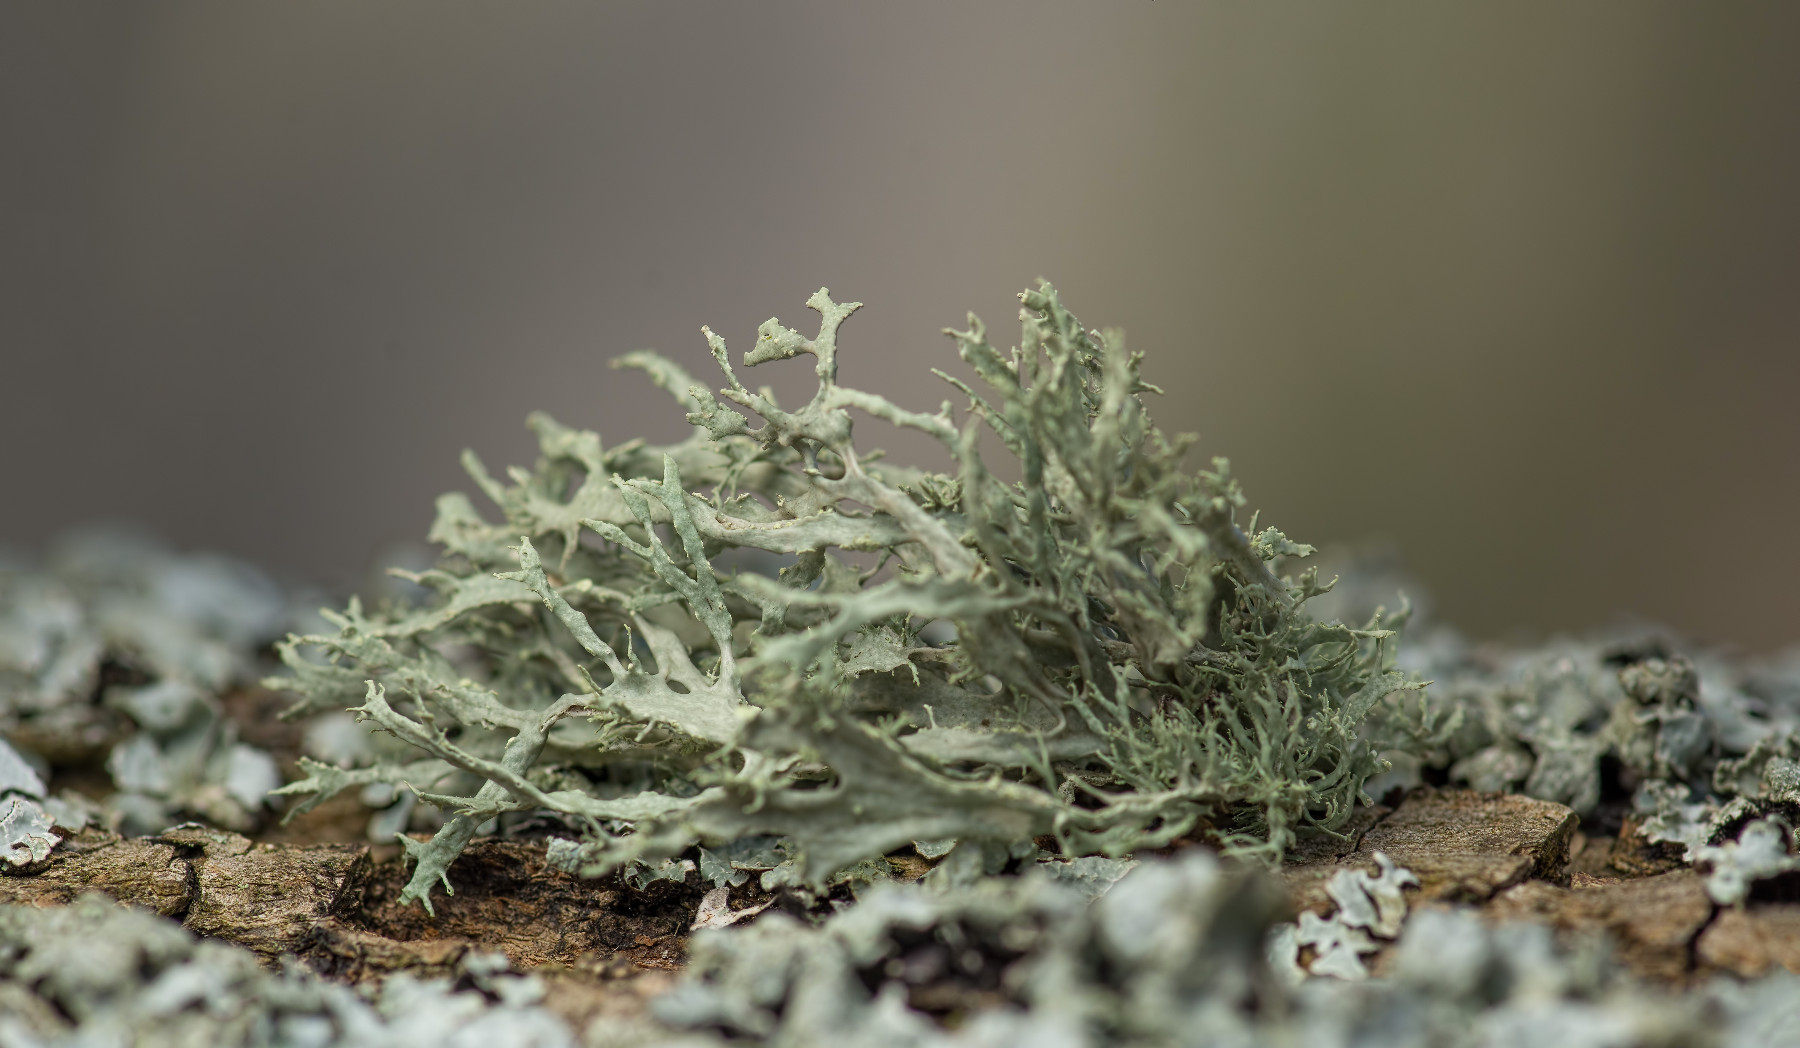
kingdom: Fungi
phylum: Ascomycota
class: Lecanoromycetes
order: Lecanorales
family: Ramalinaceae
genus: Ramalina
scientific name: Ramalina farinacea
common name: melet grenlav
